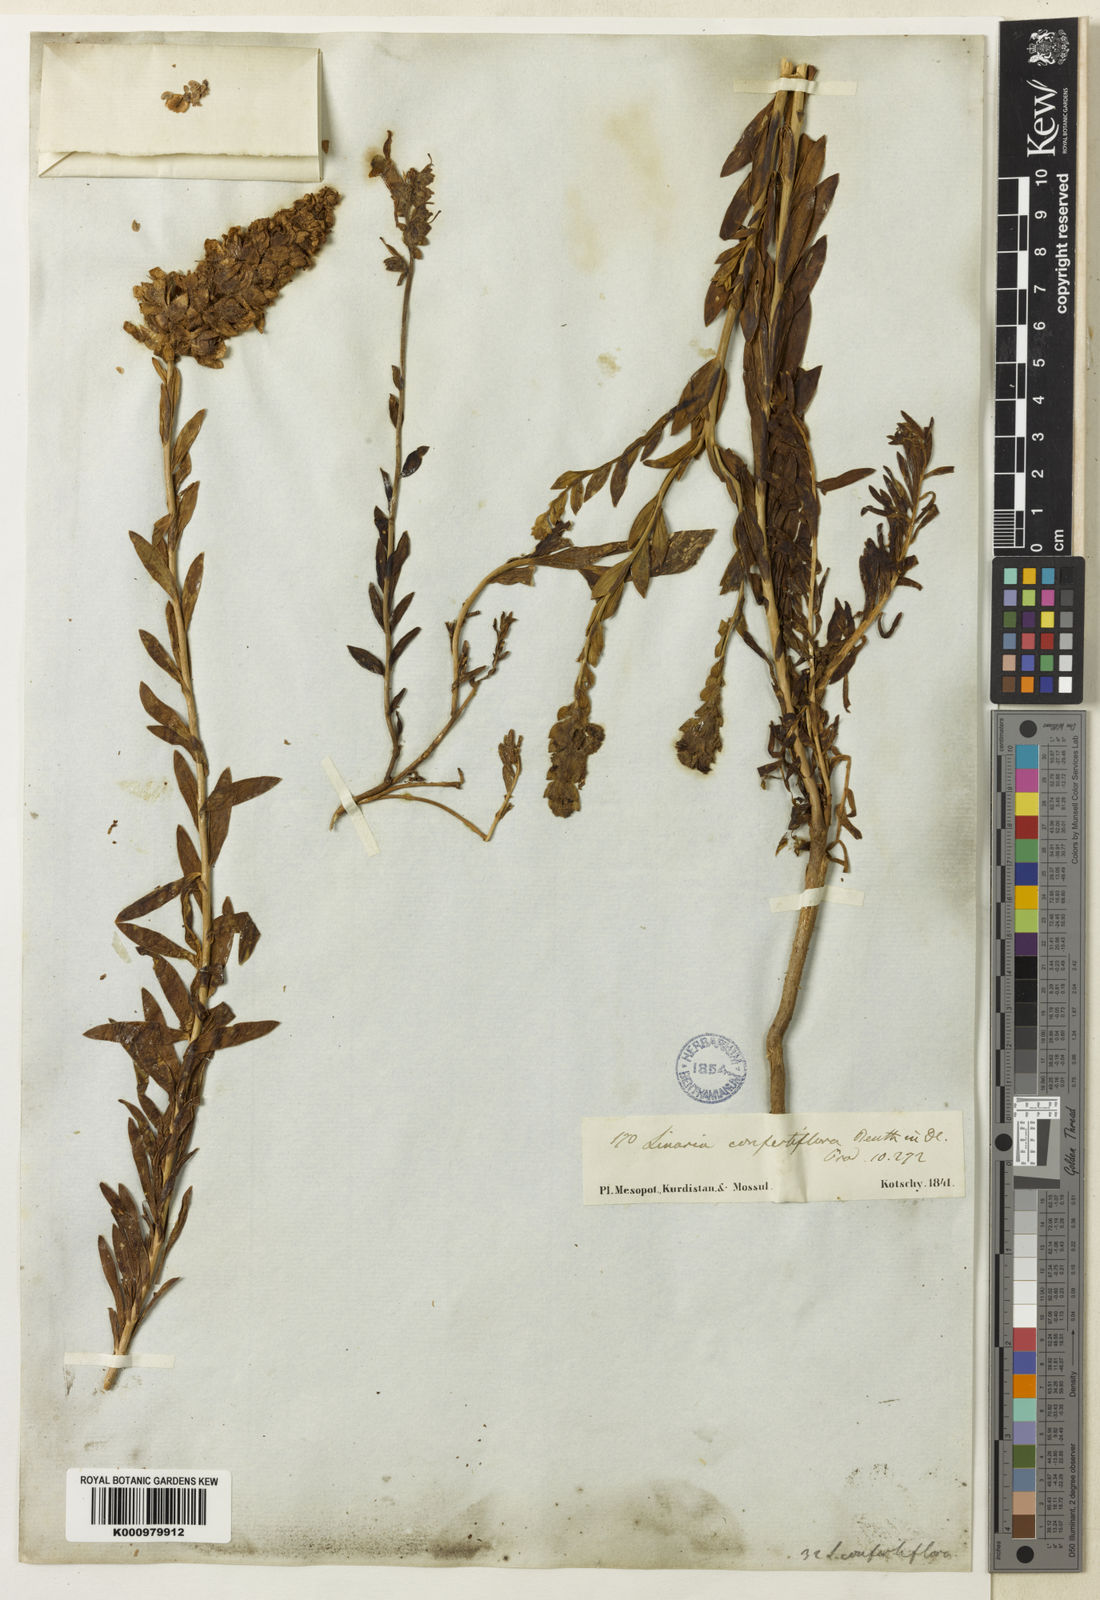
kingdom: Plantae
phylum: Tracheophyta
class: Magnoliopsida
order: Lamiales
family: Plantaginaceae
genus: Linaria
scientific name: Linaria confertiflora
